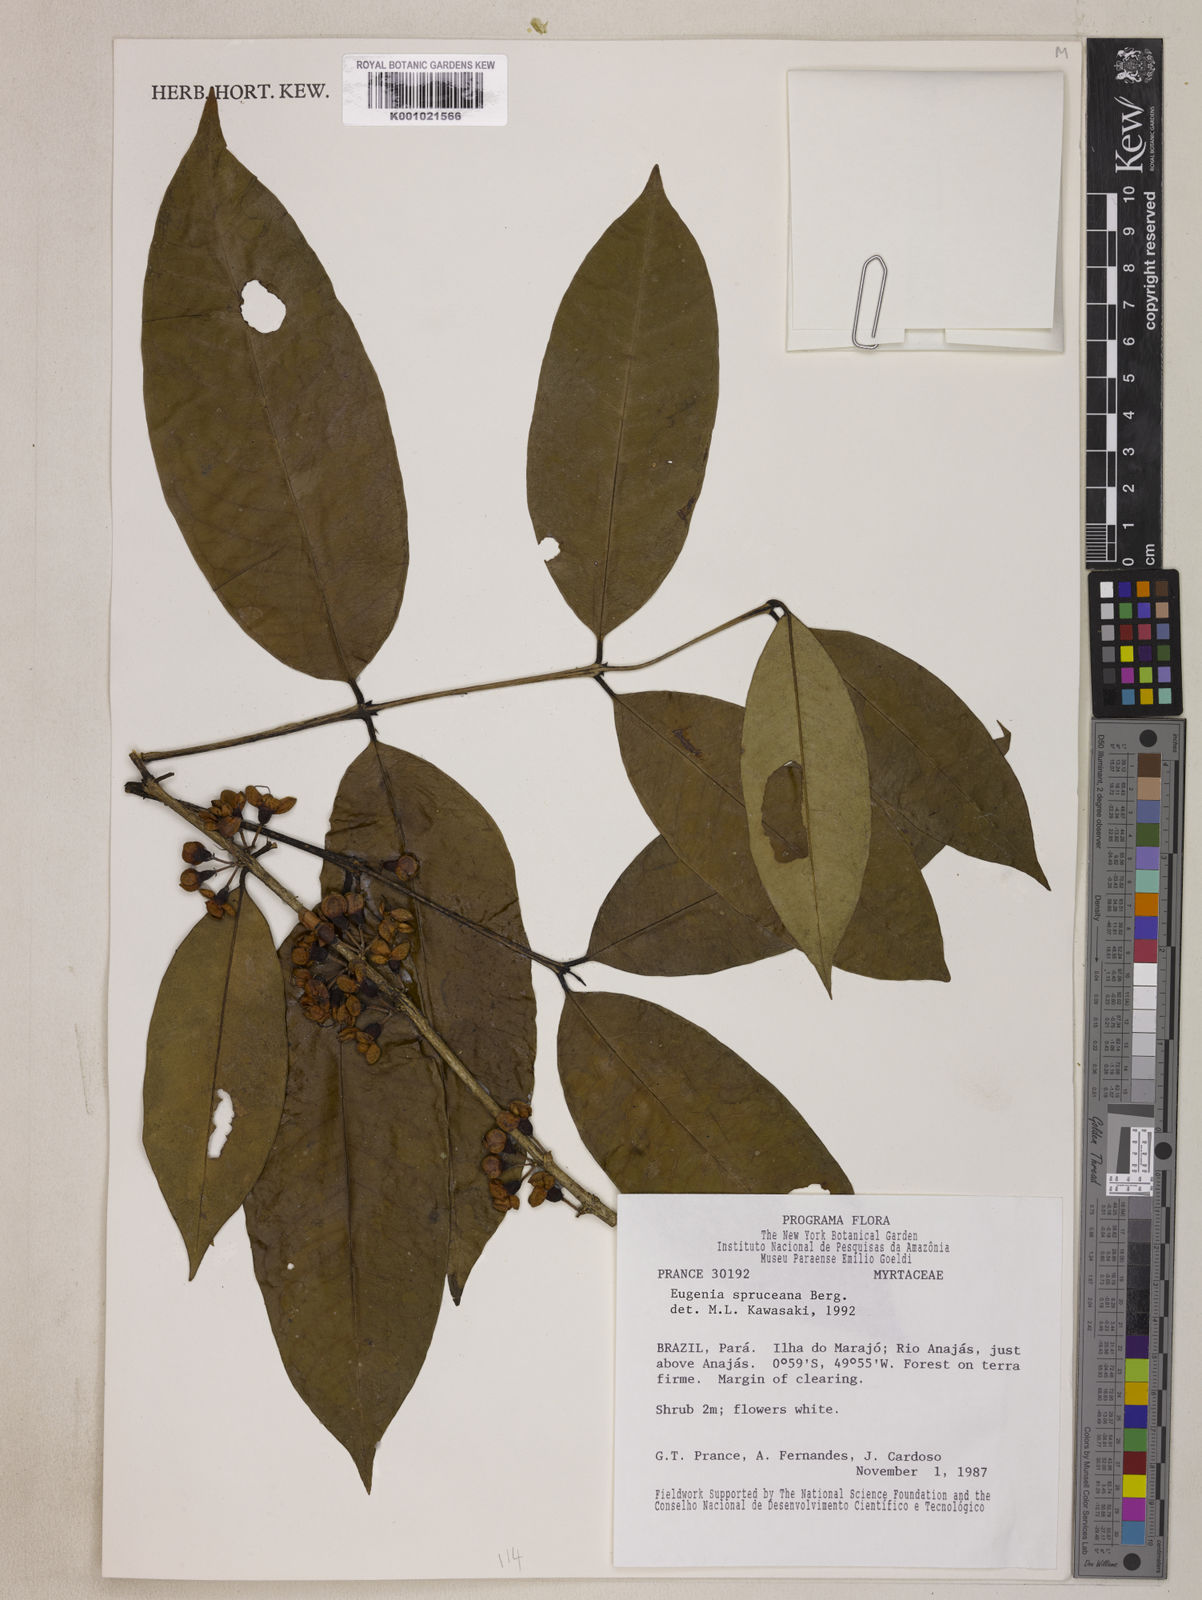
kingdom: Plantae
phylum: Tracheophyta
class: Magnoliopsida
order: Myrtales
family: Myrtaceae
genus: Eugenia
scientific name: Eugenia spruceana
